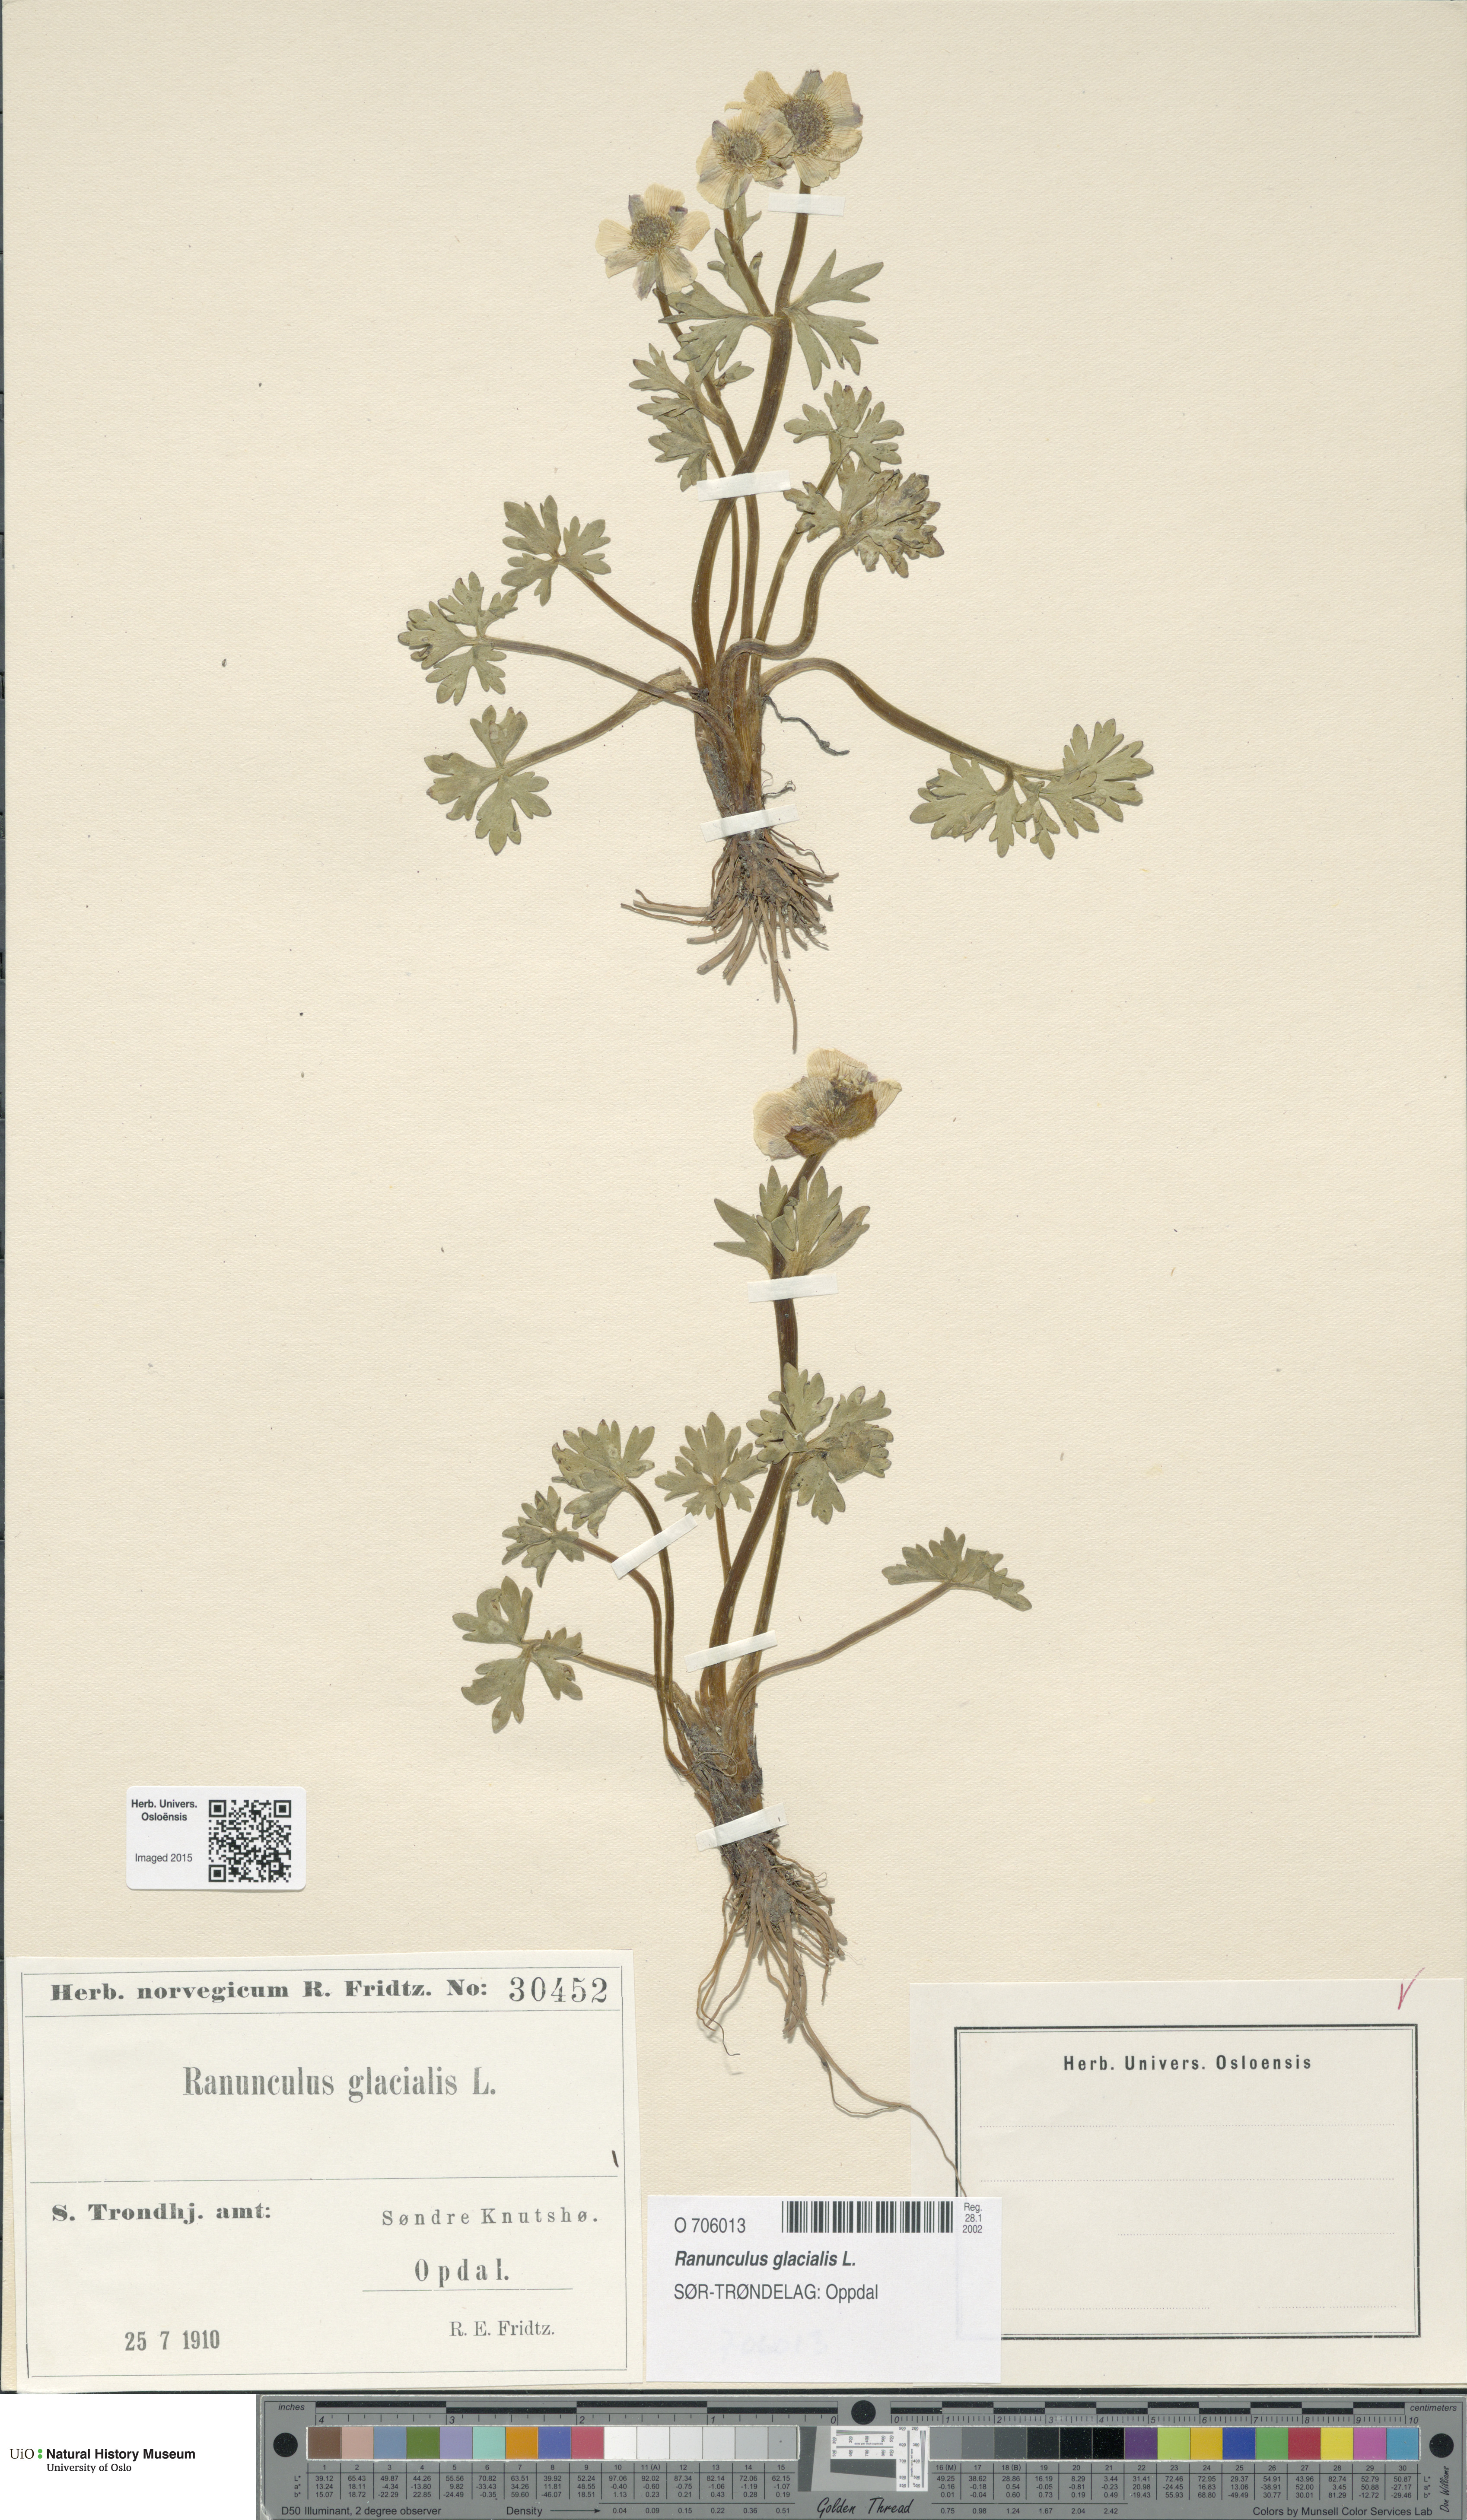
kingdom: Plantae
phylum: Tracheophyta
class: Magnoliopsida
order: Ranunculales
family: Ranunculaceae
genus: Ranunculus
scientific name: Ranunculus glacialis
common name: Glacier buttercup
